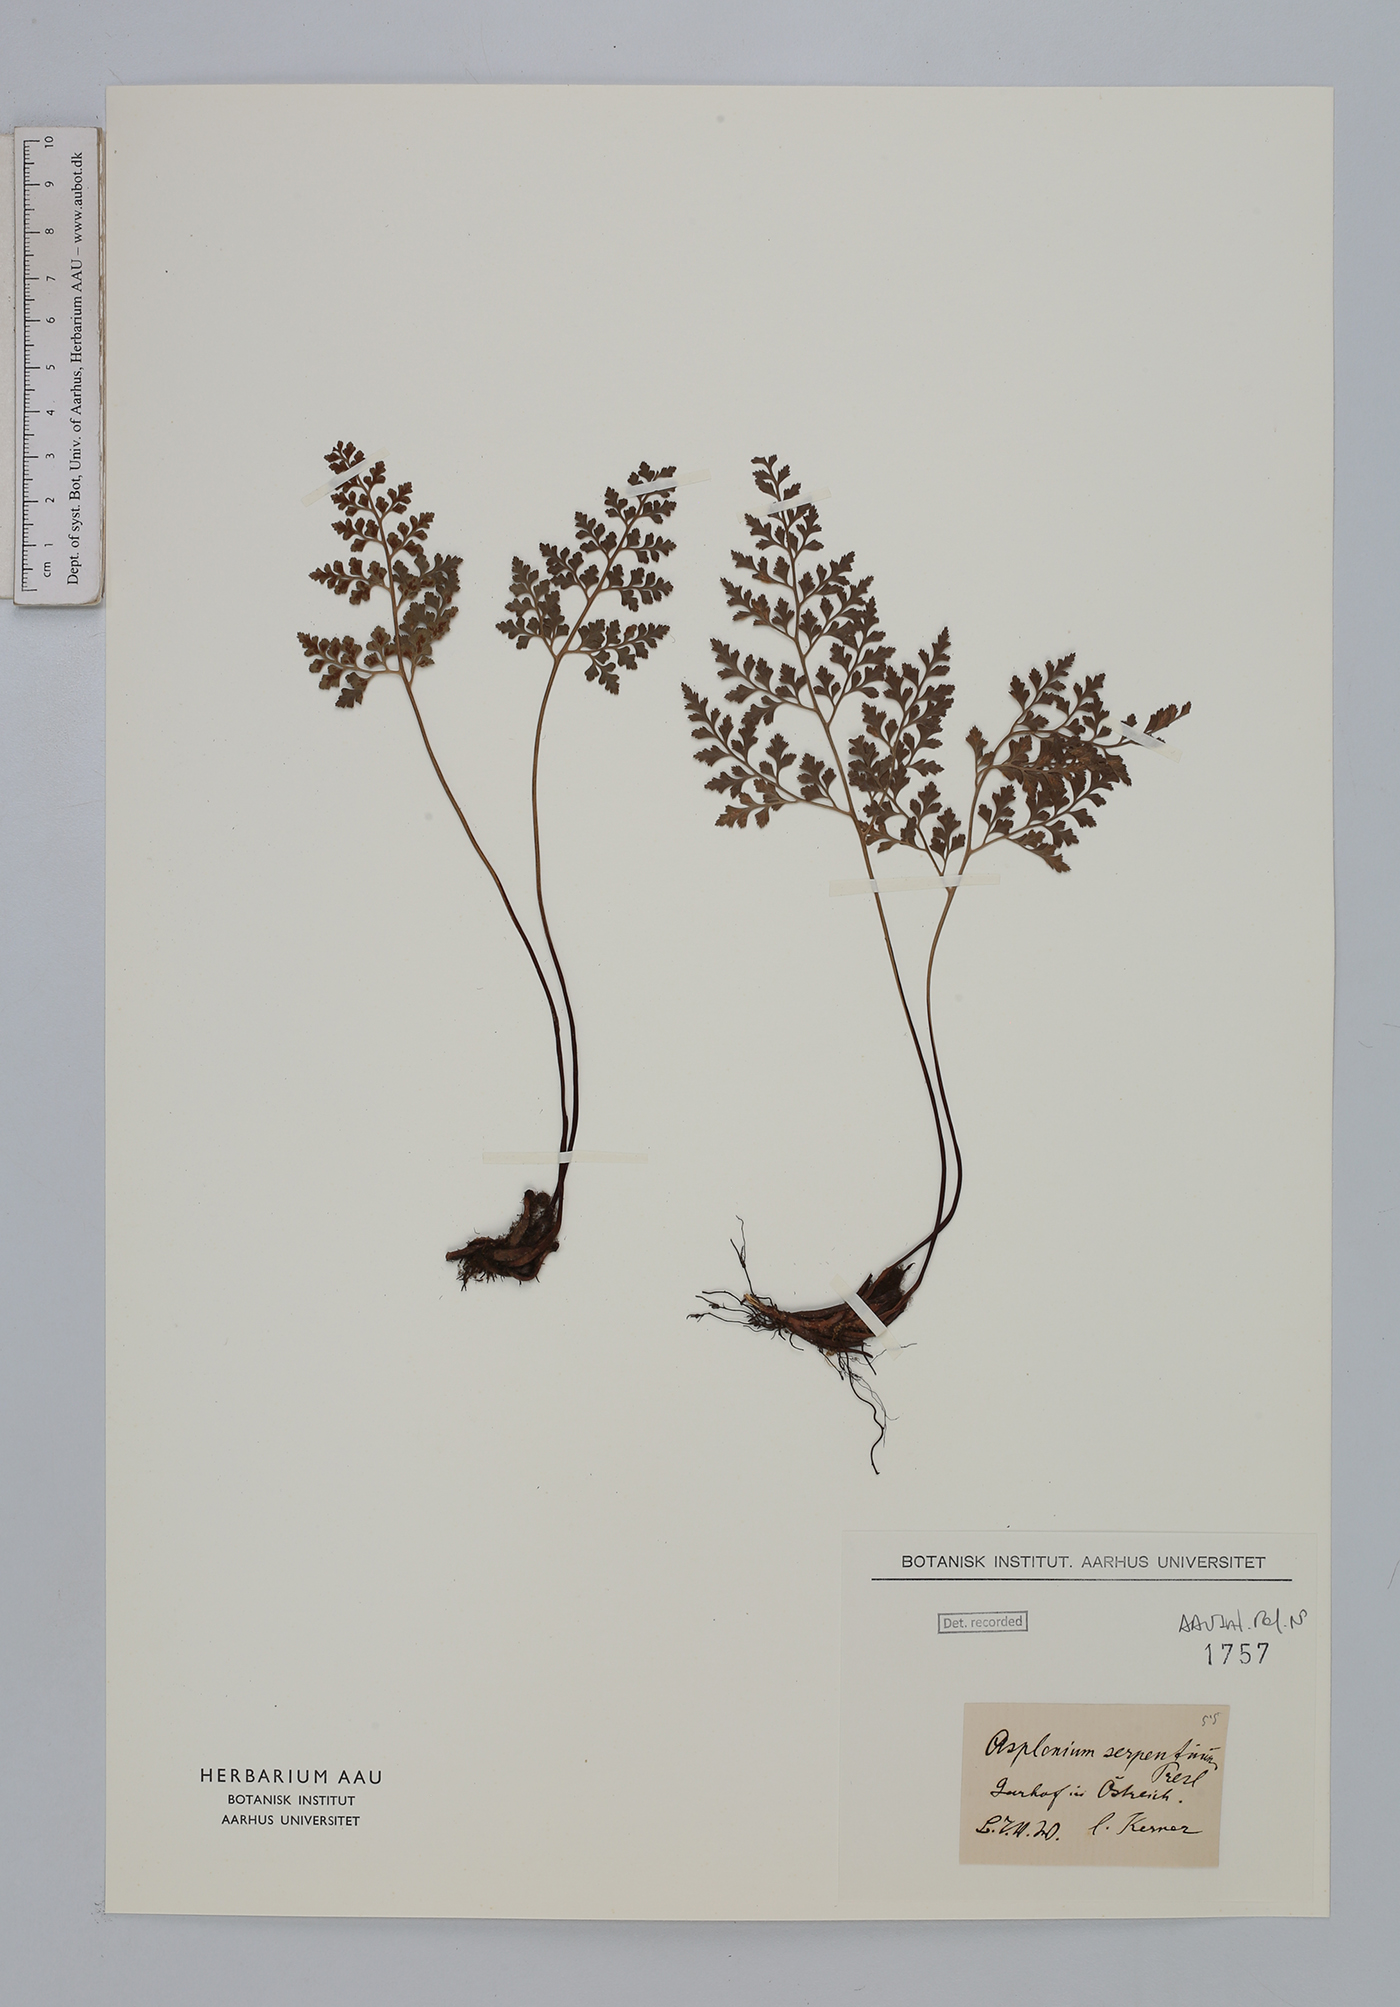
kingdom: Plantae
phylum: Tracheophyta
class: Polypodiopsida
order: Polypodiales
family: Aspleniaceae
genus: Asplenium
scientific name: Asplenium cuneifolium
